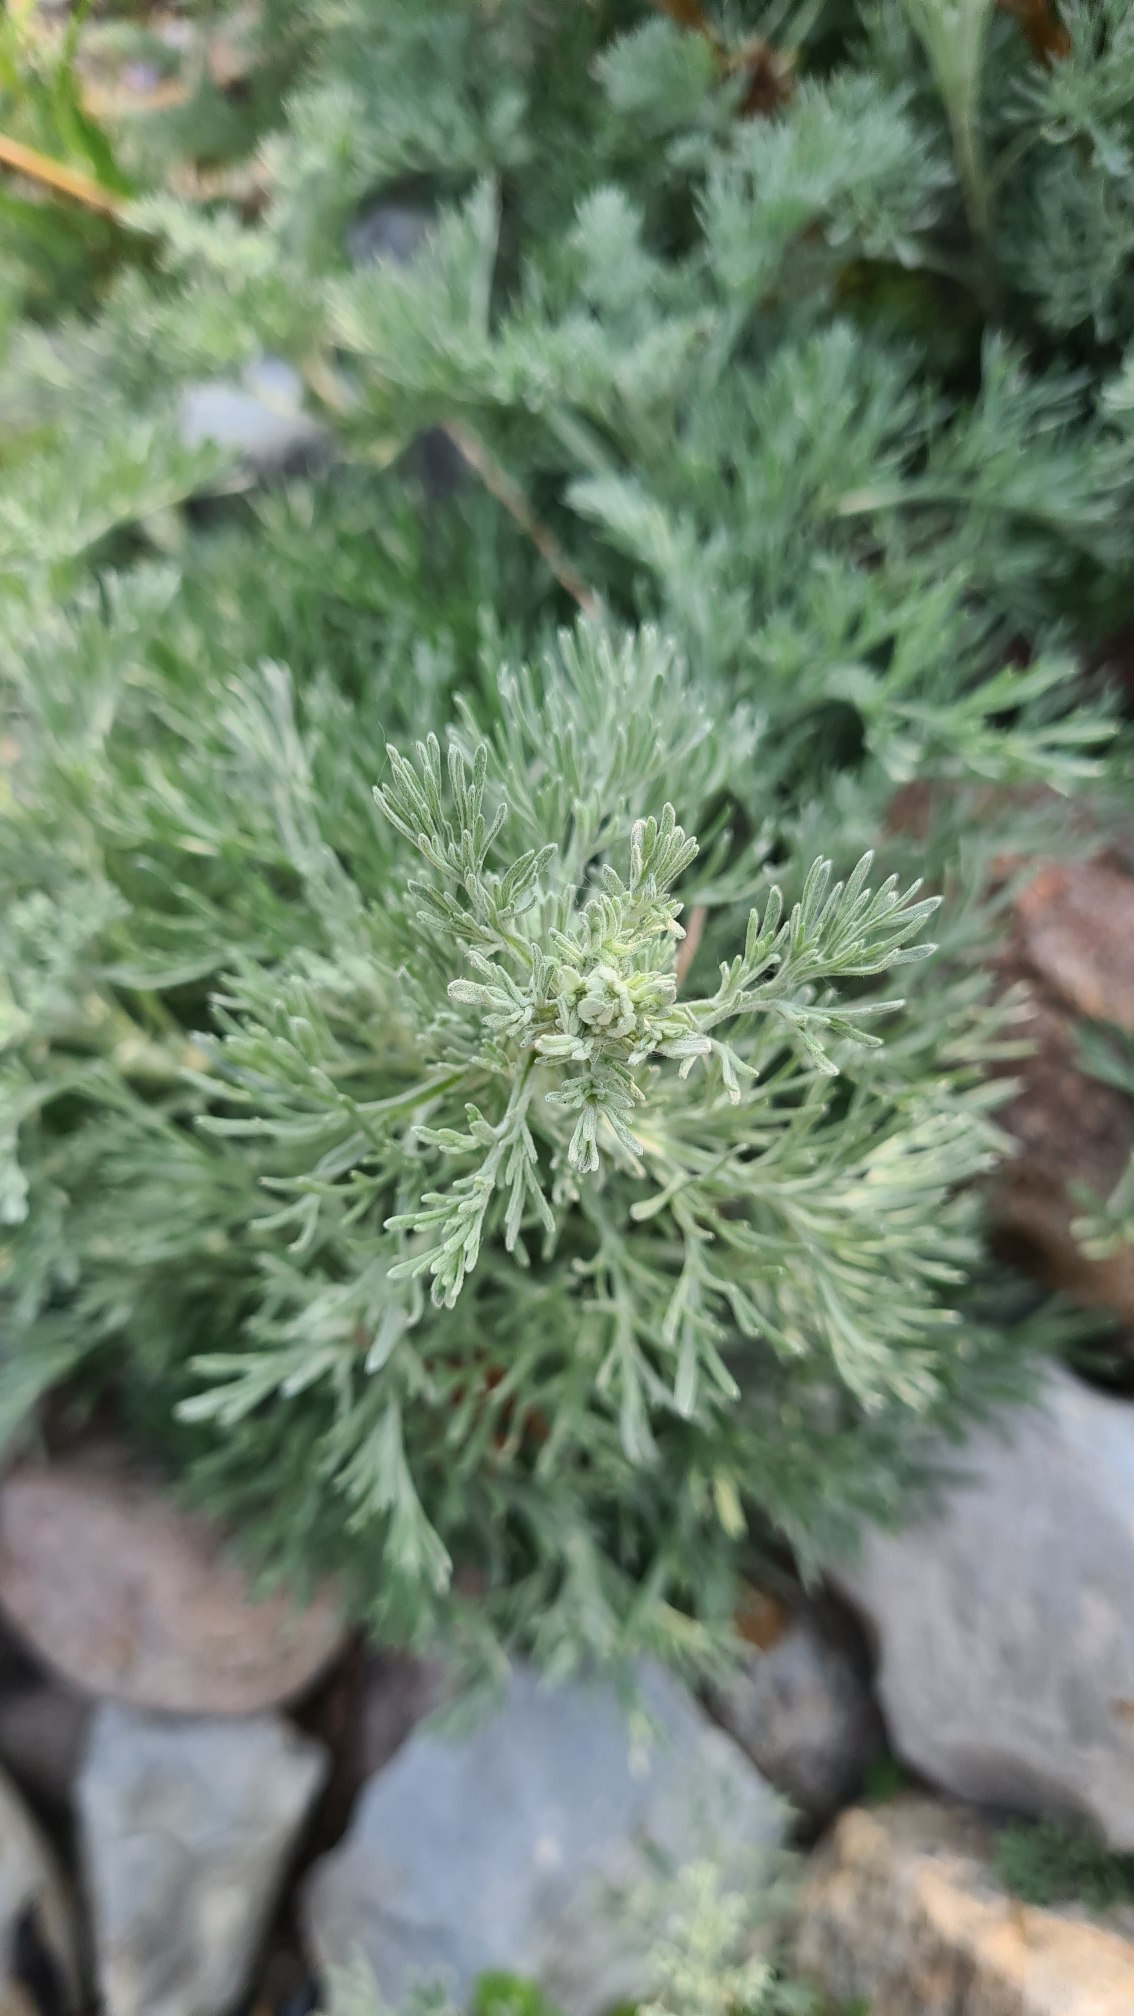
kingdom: Plantae
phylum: Tracheophyta
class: Magnoliopsida
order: Asterales
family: Asteraceae
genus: Artemisia
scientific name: Artemisia maritima
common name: Strandmalurt
